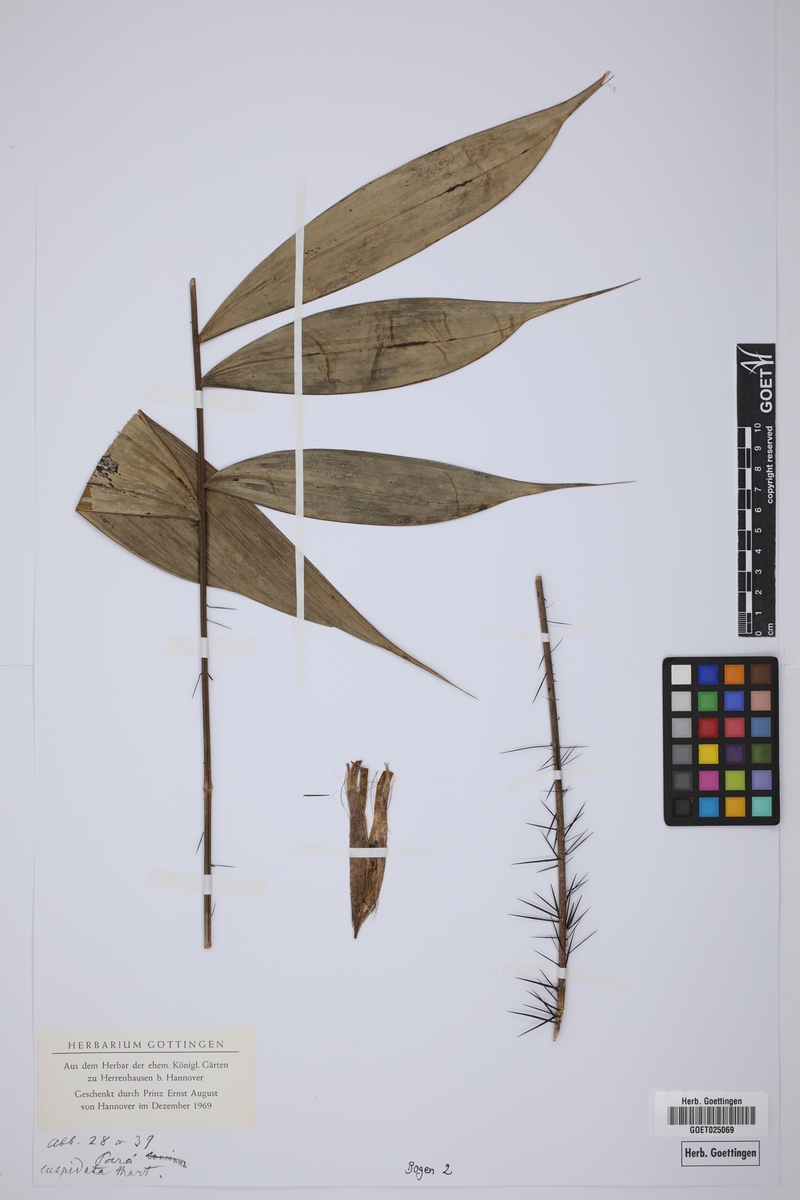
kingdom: Plantae
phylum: Tracheophyta
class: Liliopsida
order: Arecales
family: Arecaceae
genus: Bactris
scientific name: Bactris cuspidata
